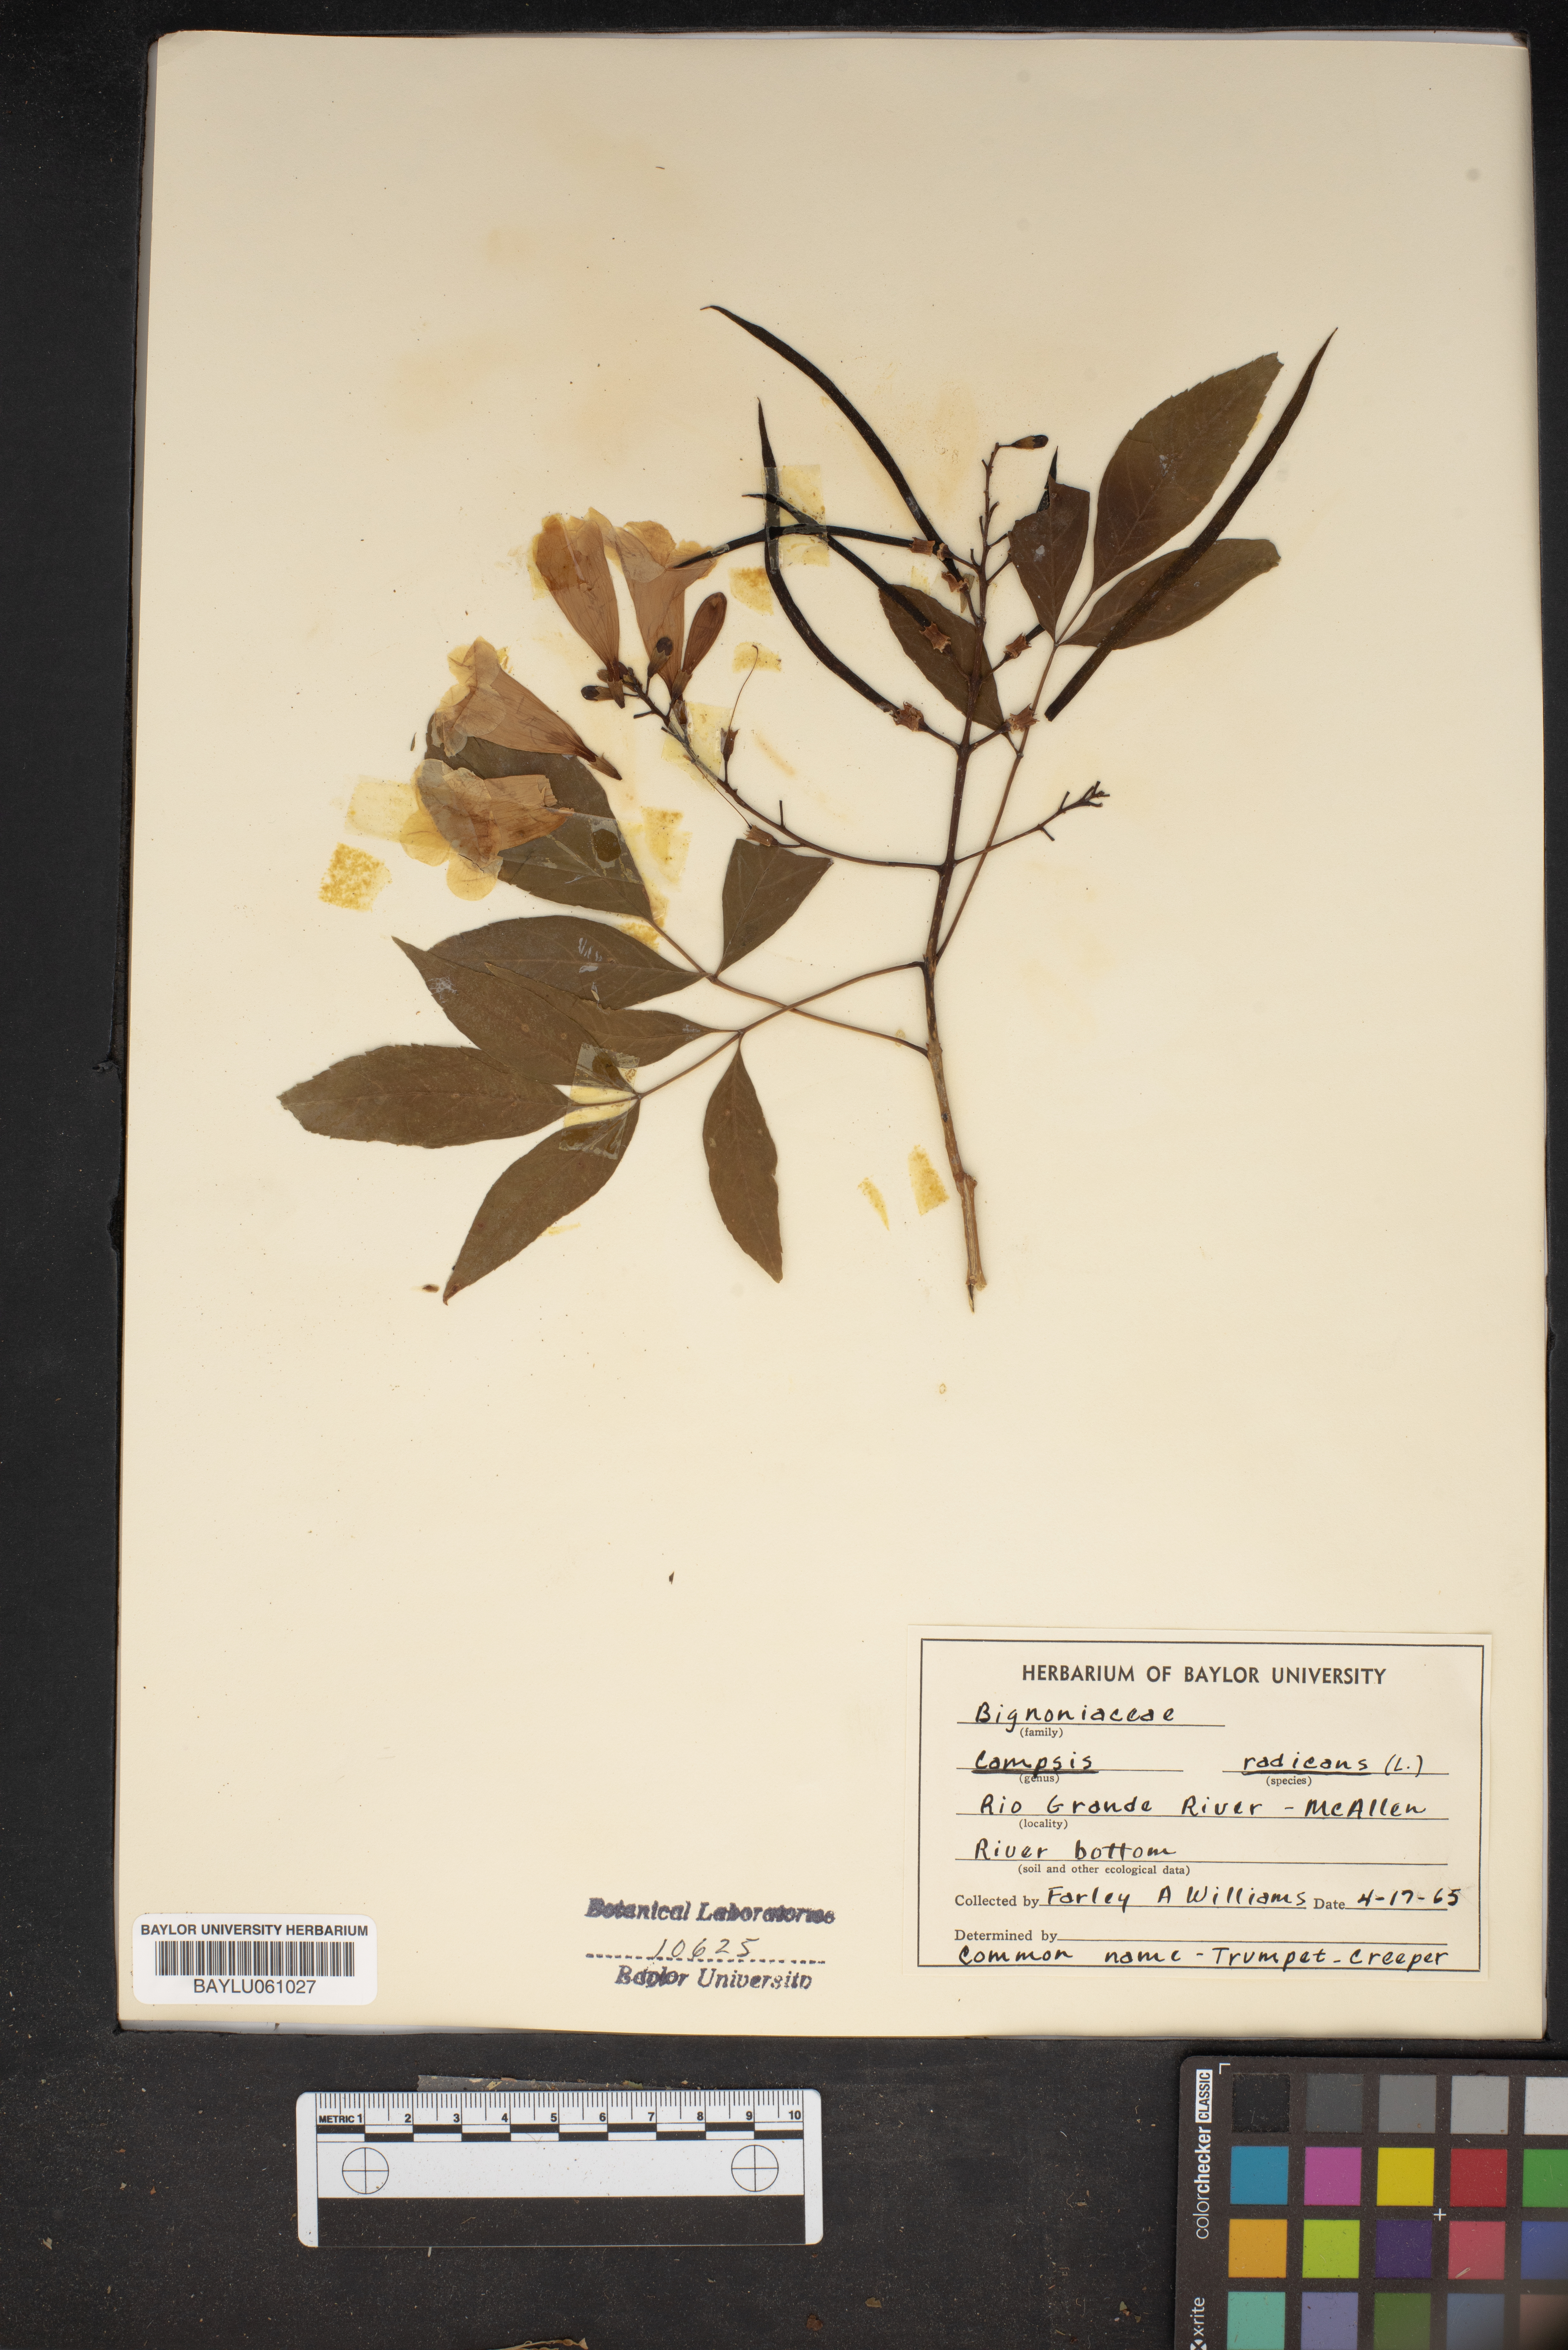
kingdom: Plantae
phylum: Tracheophyta
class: Magnoliopsida
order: Lamiales
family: Bignoniaceae
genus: Campsis
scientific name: Campsis radicans
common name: Trumpet-creeper
